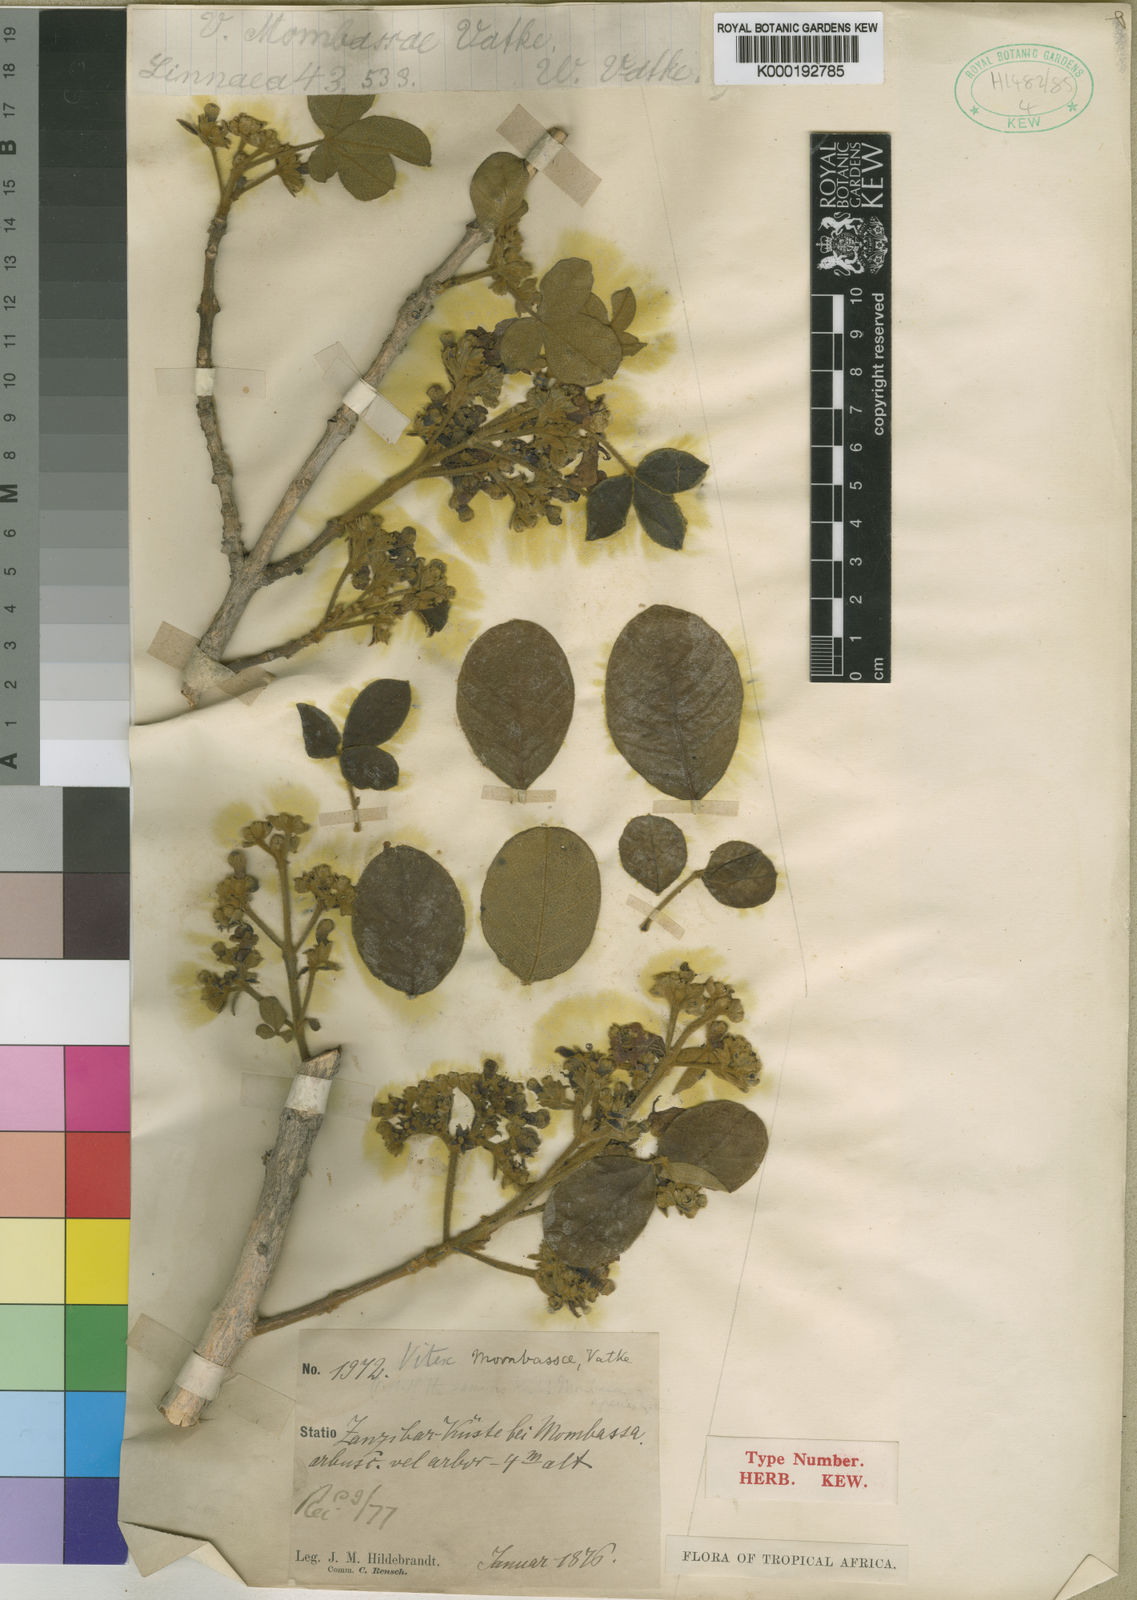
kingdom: Plantae
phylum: Tracheophyta
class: Magnoliopsida
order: Lamiales
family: Lamiaceae
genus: Vitex
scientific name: Vitex
